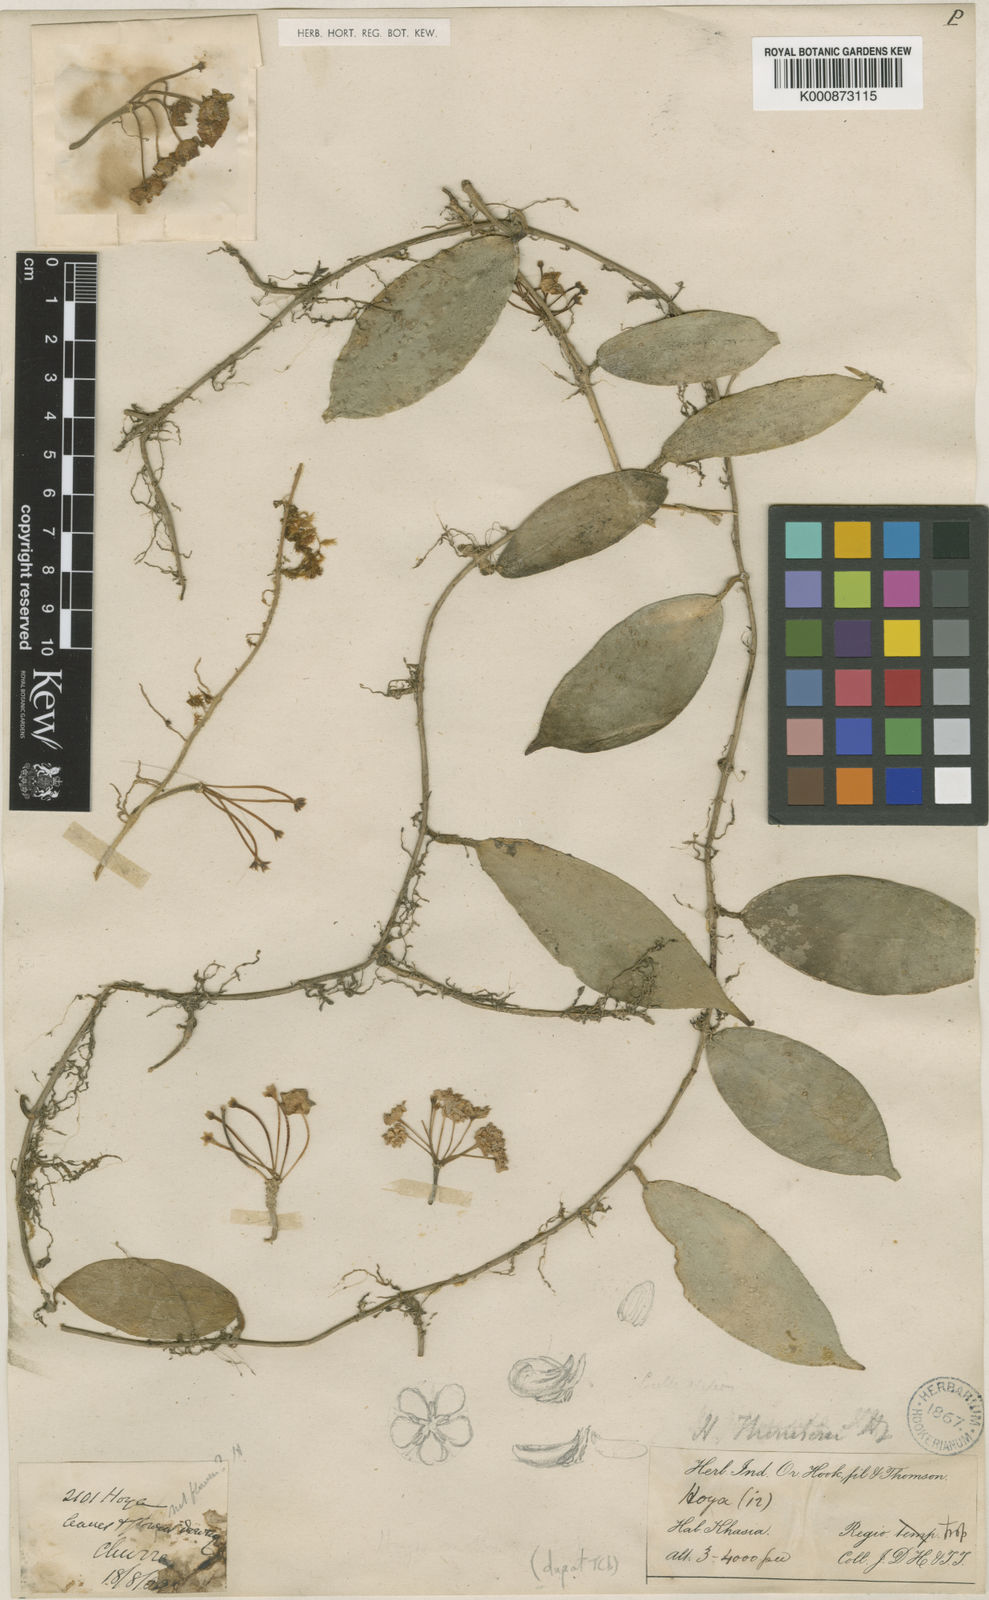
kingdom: Plantae
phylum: Tracheophyta
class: Magnoliopsida
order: Gentianales
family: Apocynaceae
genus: Hoya
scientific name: Hoya thomsonii
